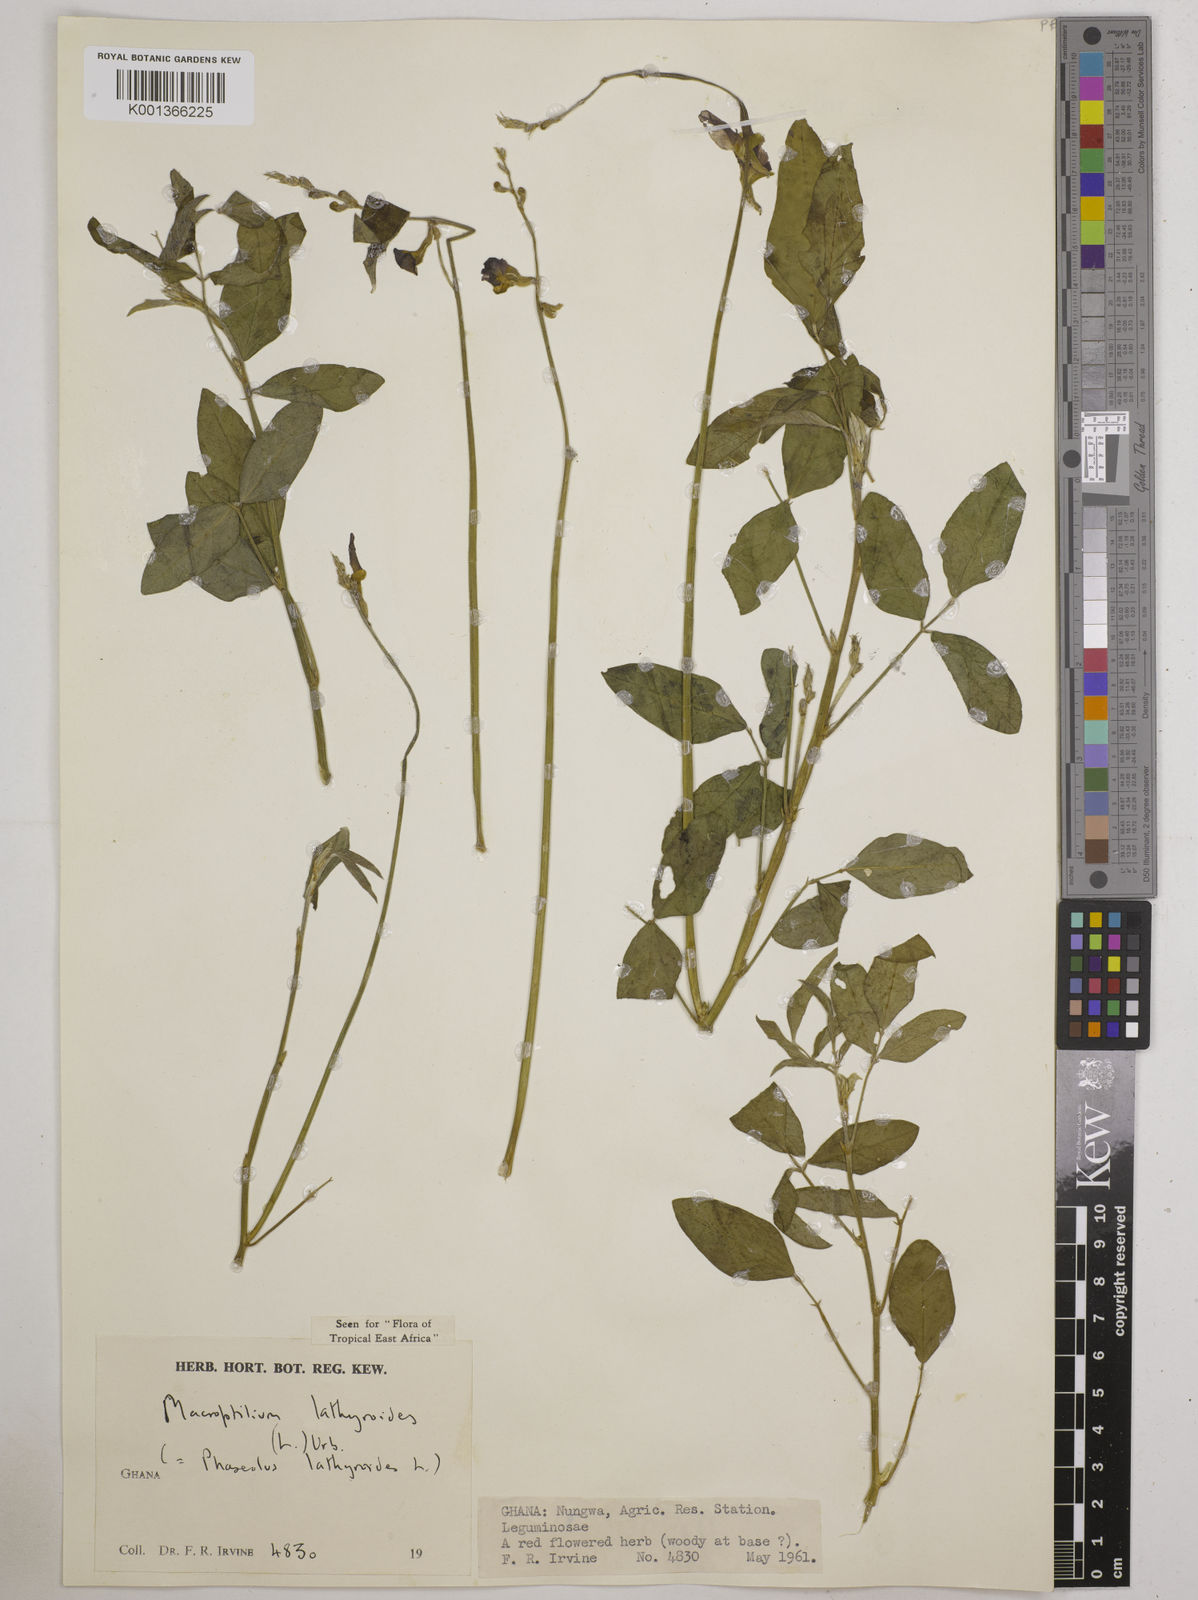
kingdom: Plantae
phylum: Tracheophyta
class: Magnoliopsida
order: Fabales
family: Fabaceae
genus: Macroptilium
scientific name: Macroptilium lathyroides
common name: Wild bushbean
